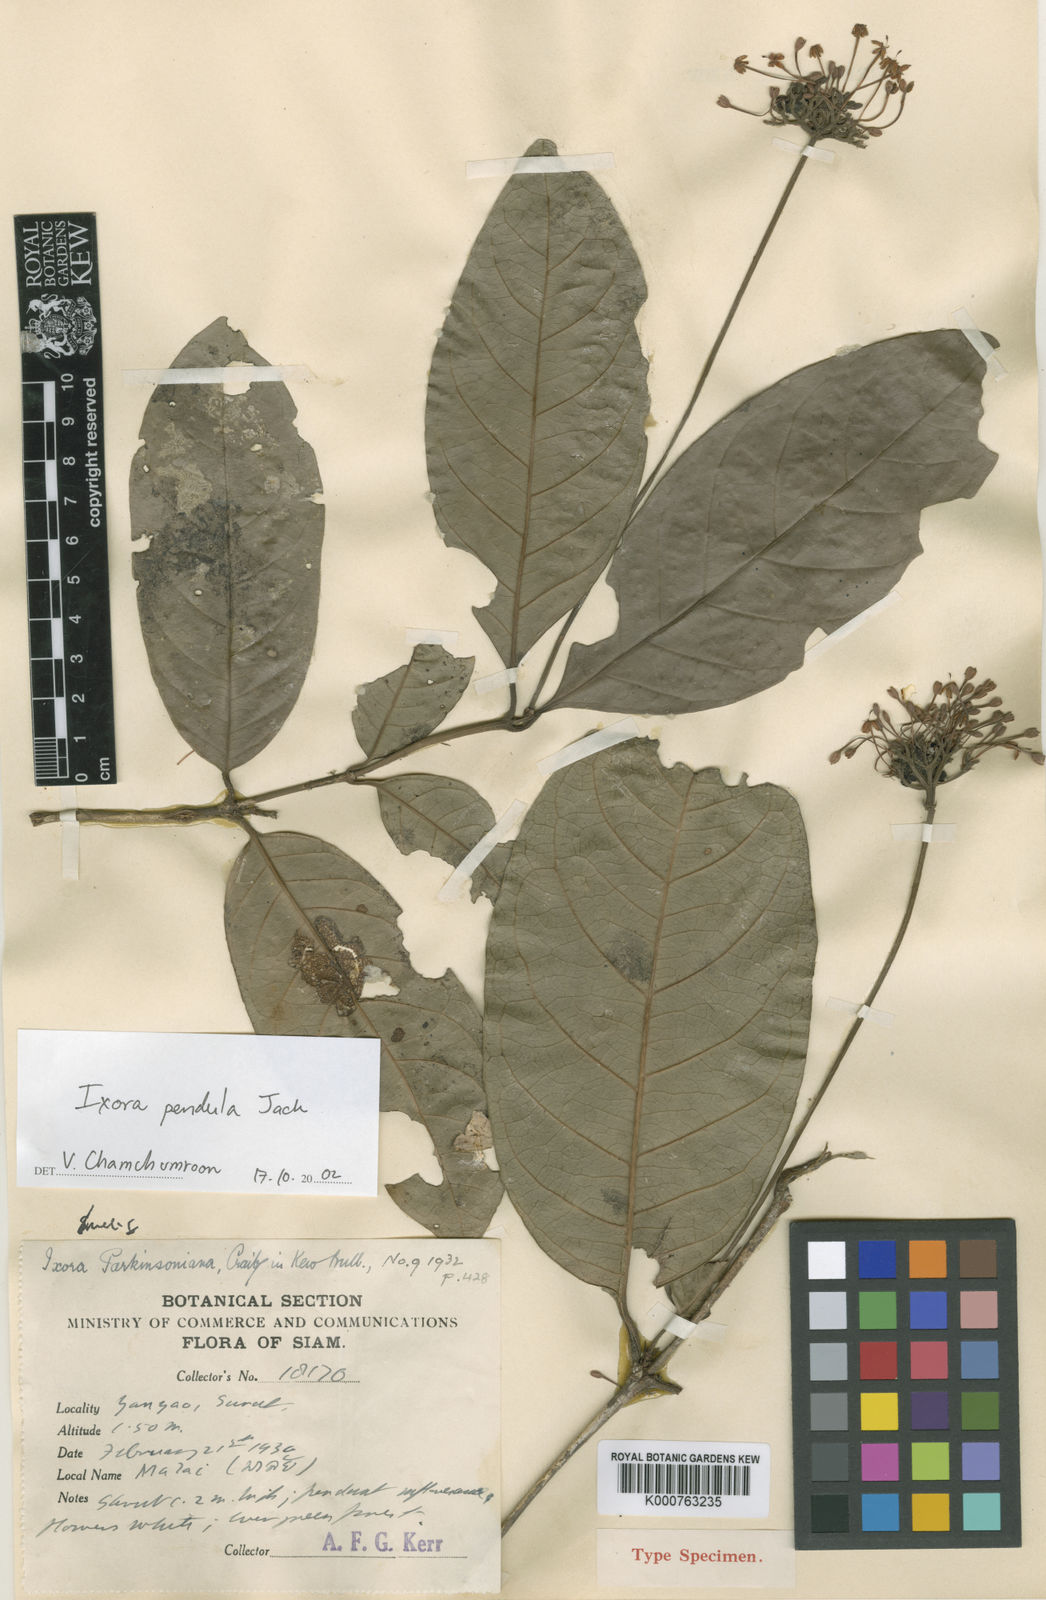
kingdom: Plantae
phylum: Tracheophyta
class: Magnoliopsida
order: Gentianales
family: Rubiaceae
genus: Ixora
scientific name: Ixora pendula
